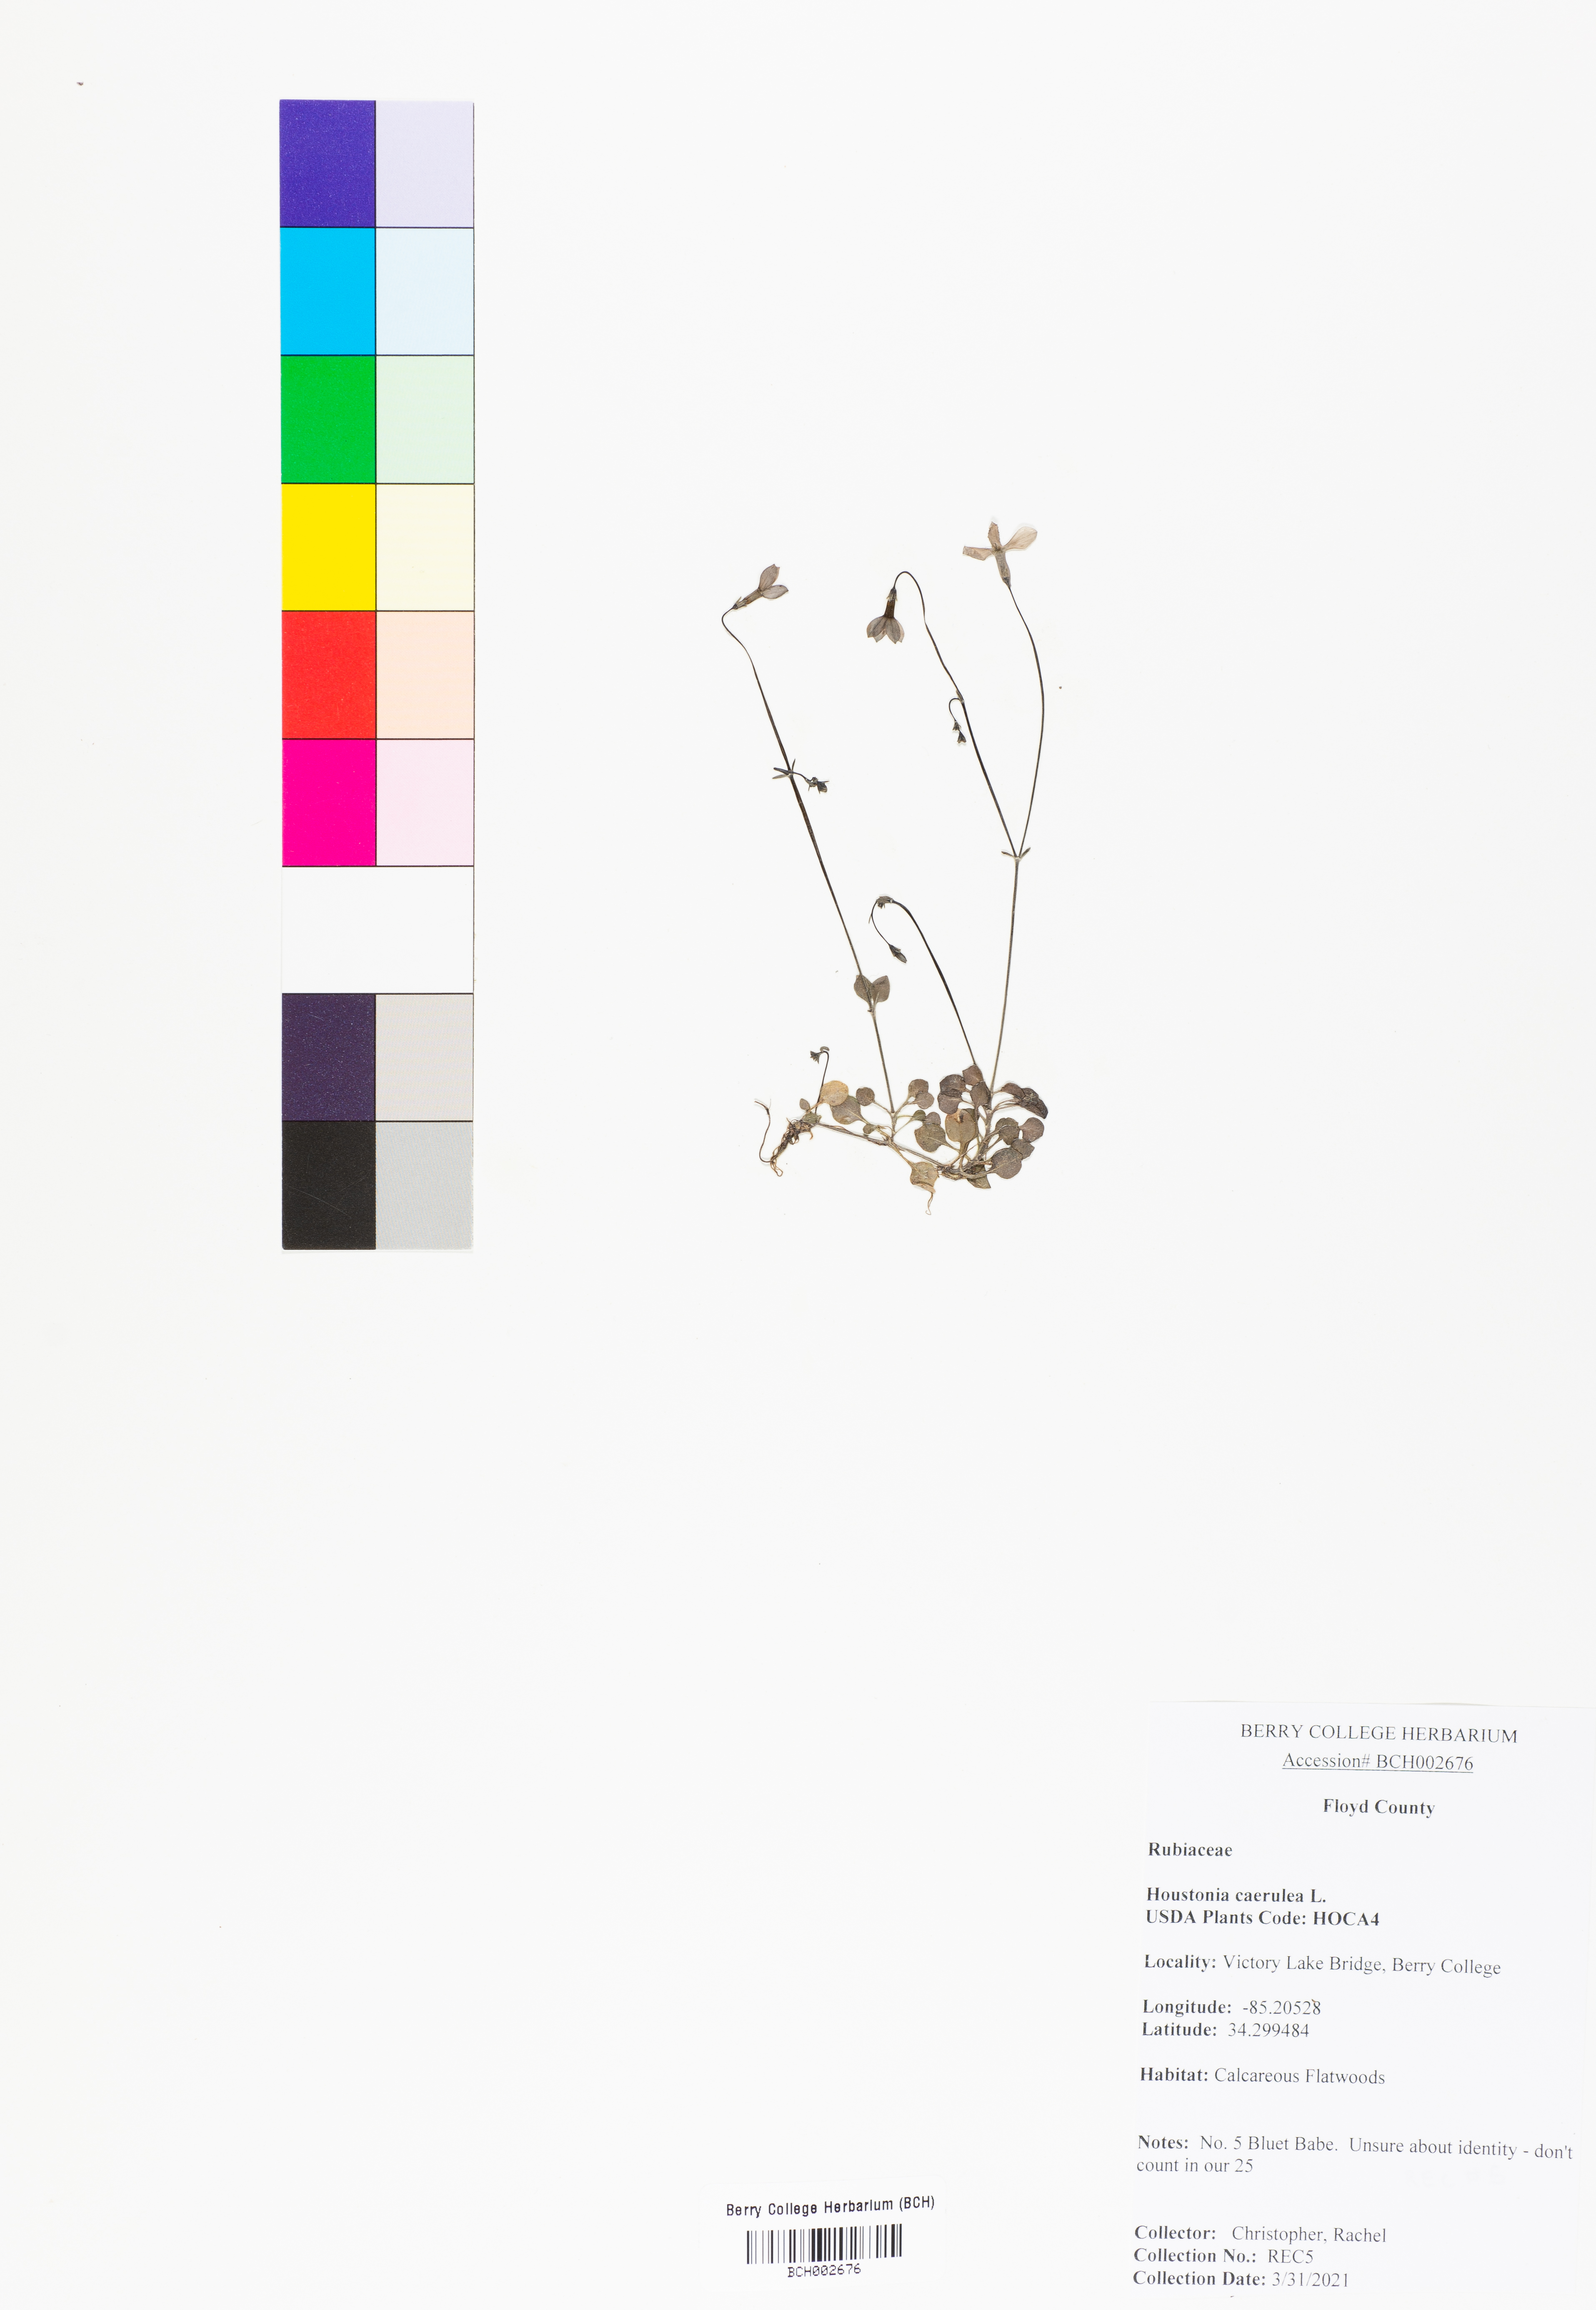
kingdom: Plantae
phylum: Tracheophyta
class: Magnoliopsida
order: Gentianales
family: Rubiaceae
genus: Houstonia
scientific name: Houstonia caerulea
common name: Bluets
